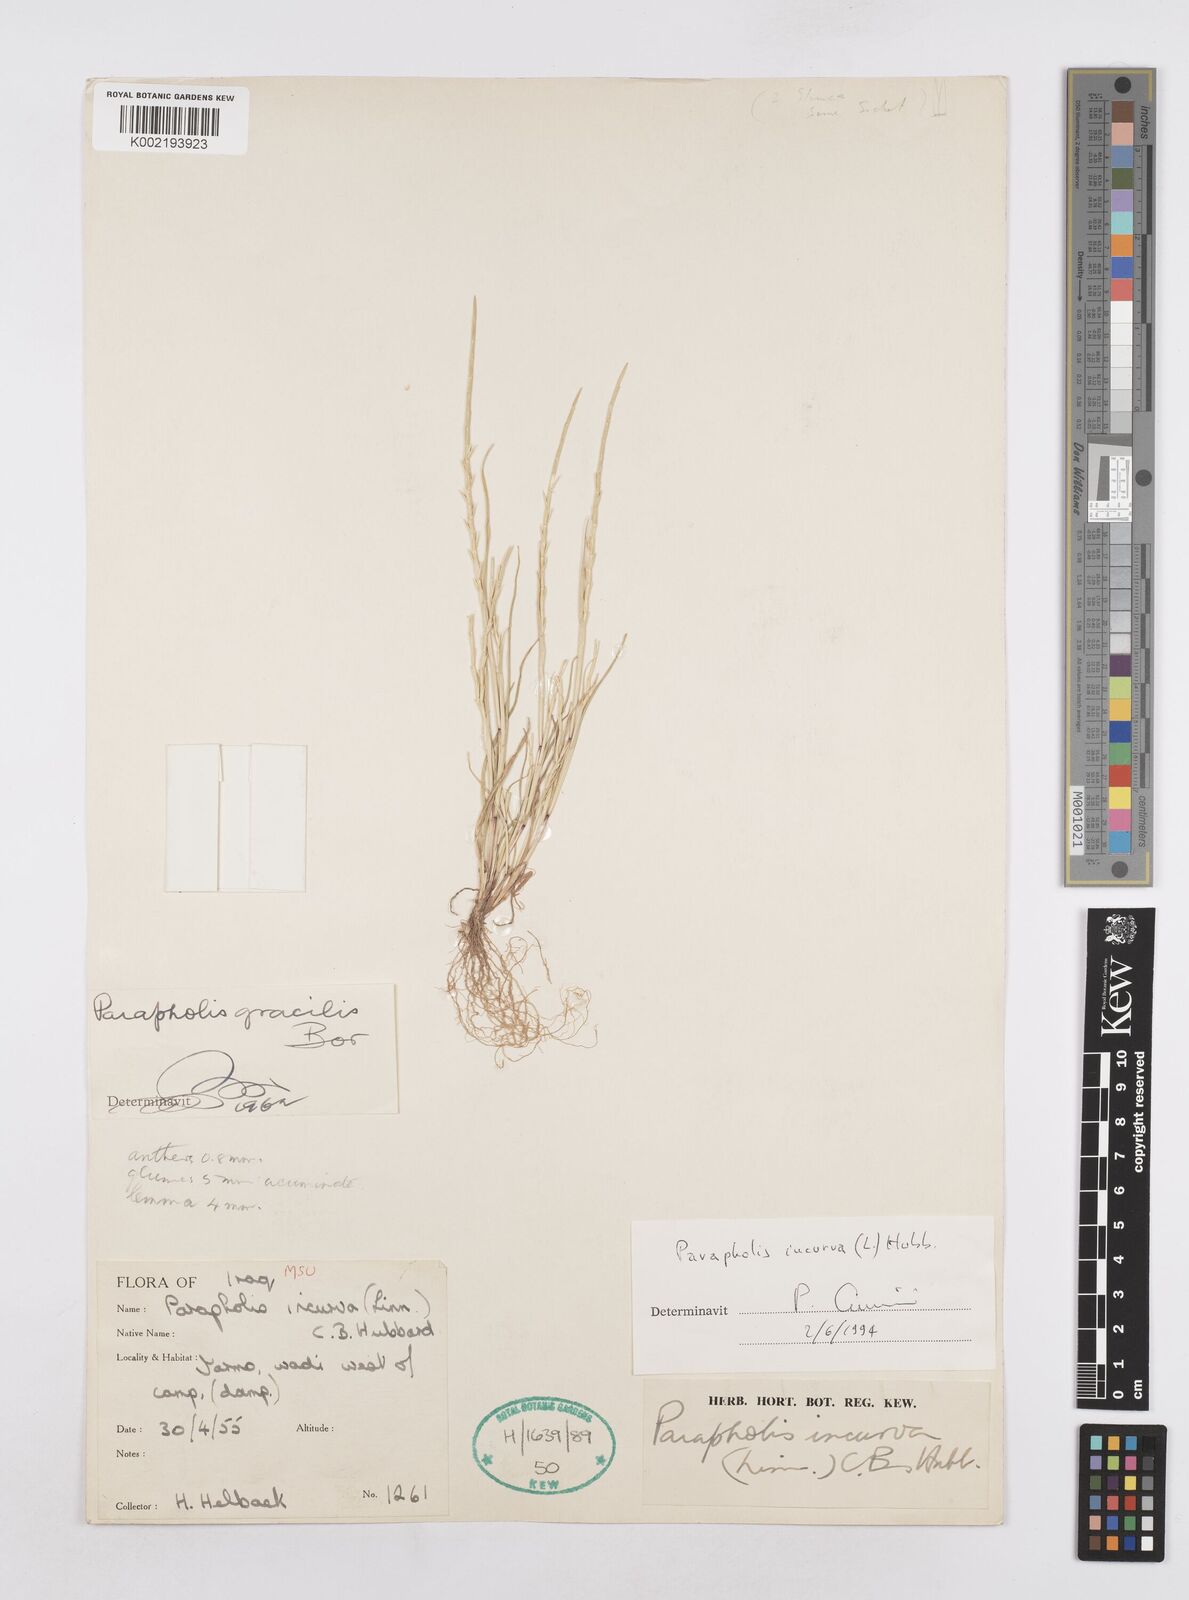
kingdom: Plantae
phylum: Tracheophyta
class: Liliopsida
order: Poales
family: Poaceae
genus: Parapholis
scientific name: Parapholis incurva
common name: Curved sicklegrass
